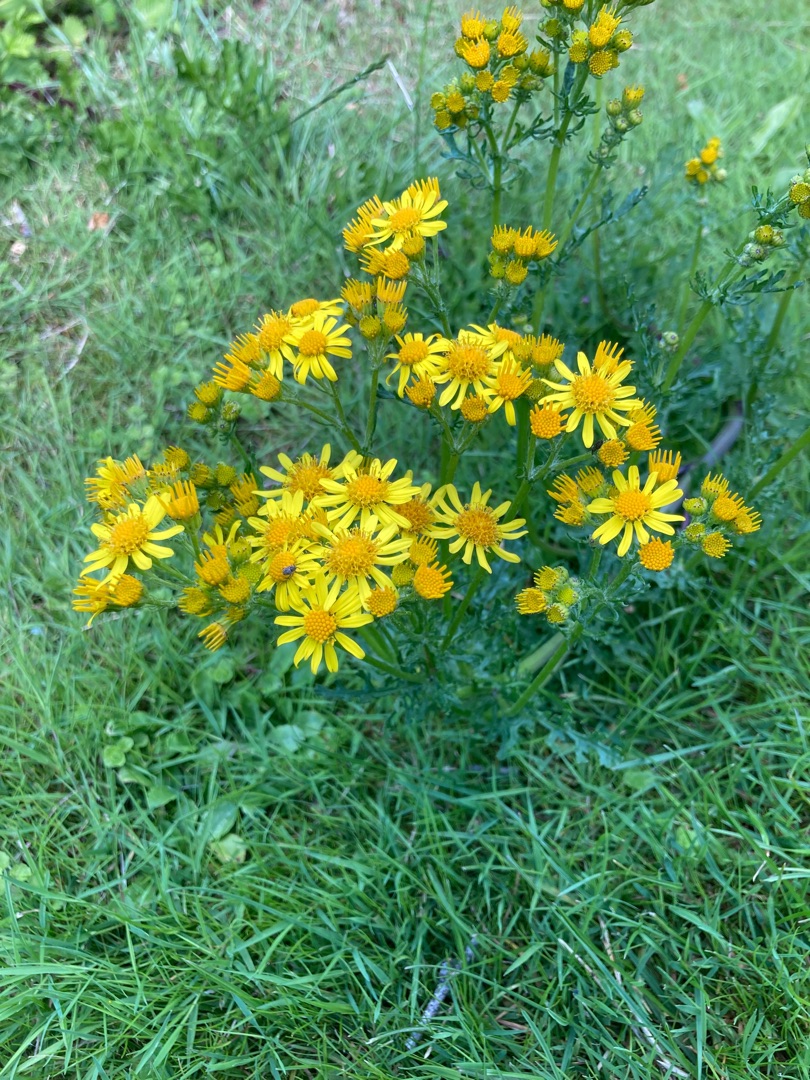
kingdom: Plantae
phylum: Tracheophyta
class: Magnoliopsida
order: Asterales
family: Asteraceae
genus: Jacobaea
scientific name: Jacobaea vulgaris
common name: Eng-brandbæger
